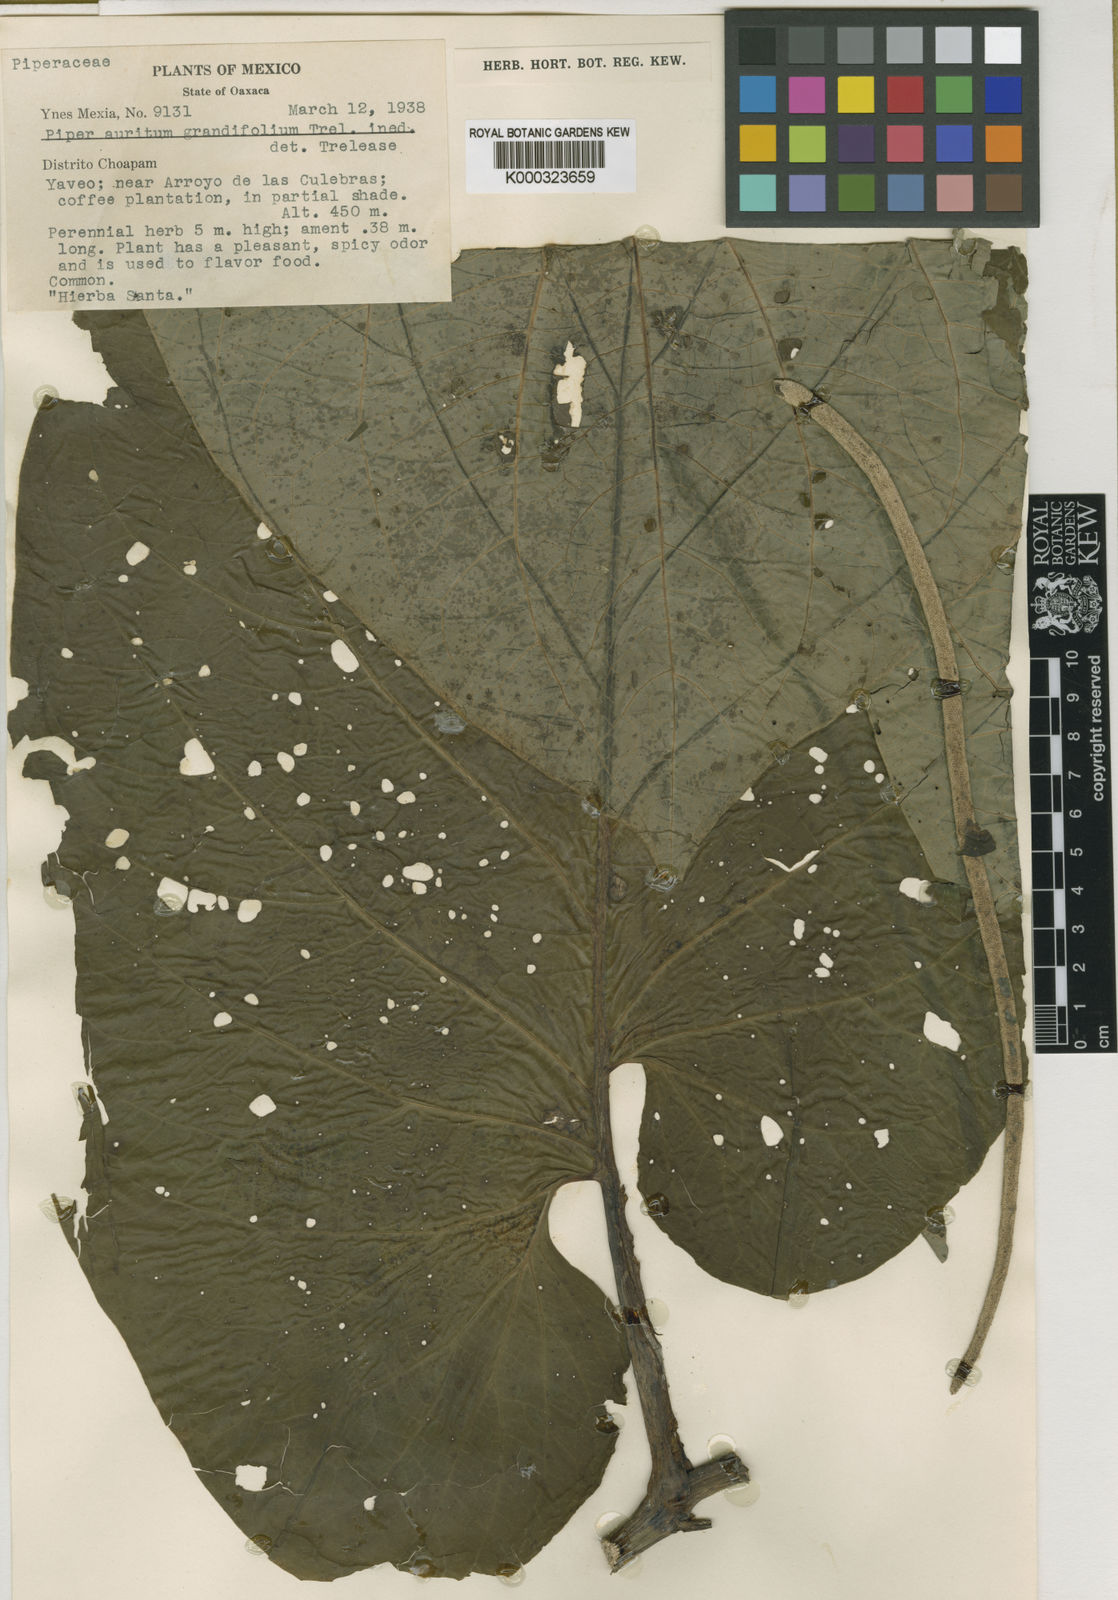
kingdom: Plantae
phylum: Tracheophyta
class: Magnoliopsida
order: Piperales
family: Piperaceae
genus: Piper
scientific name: Piper
